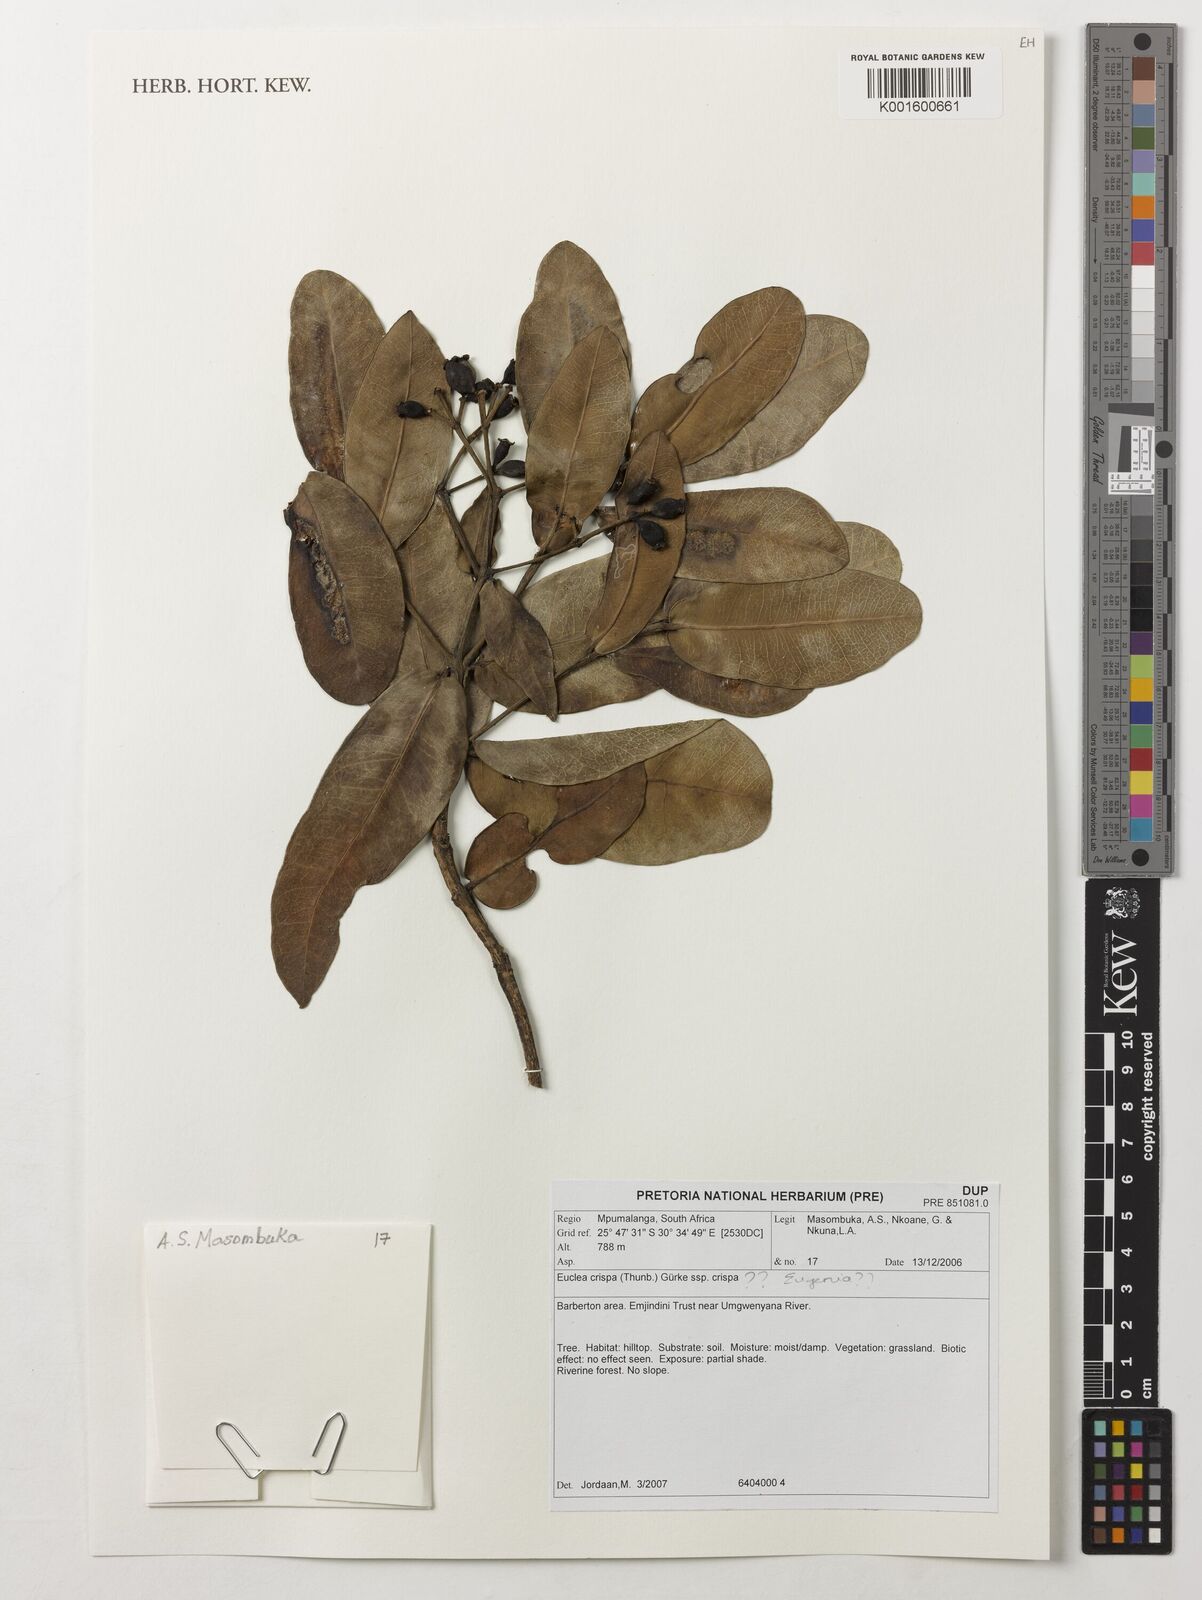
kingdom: Plantae
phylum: Tracheophyta
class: Magnoliopsida
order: Myrtales
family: Myrtaceae
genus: Eugenia
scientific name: Eugenia
